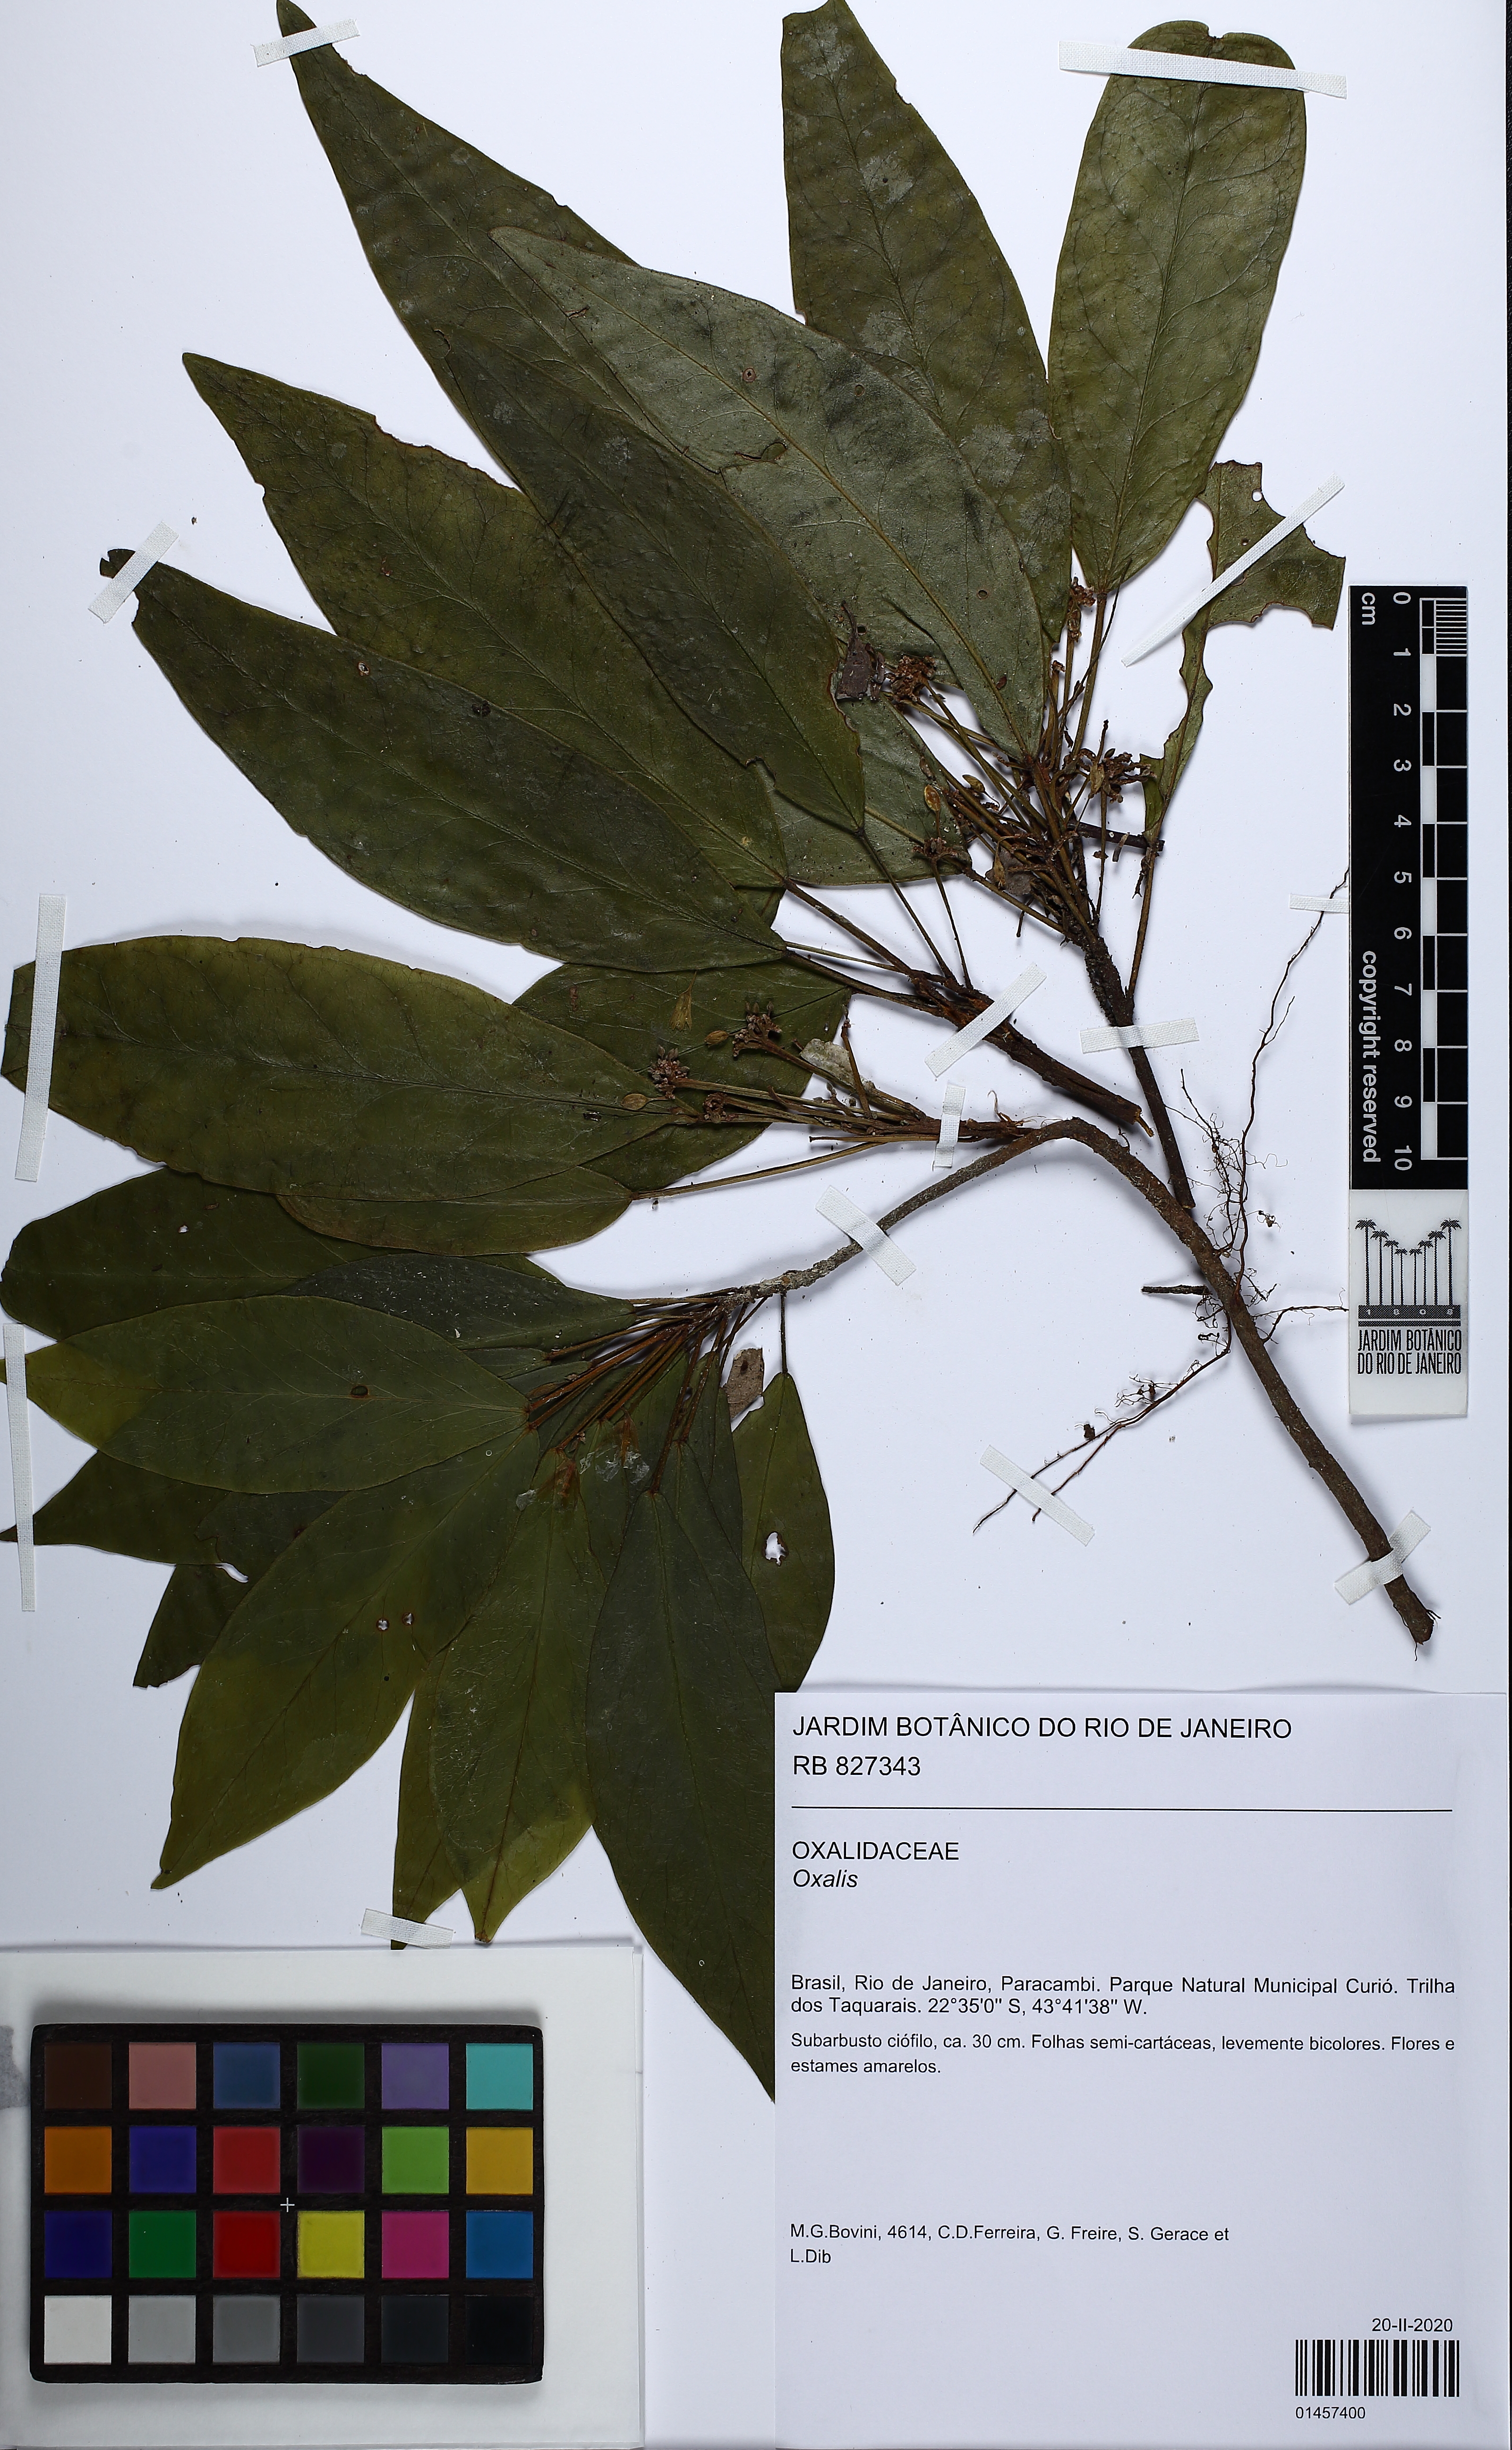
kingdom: Plantae
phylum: Tracheophyta
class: Magnoliopsida
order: Oxalidales
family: Oxalidaceae
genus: Oxalis
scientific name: Oxalis
